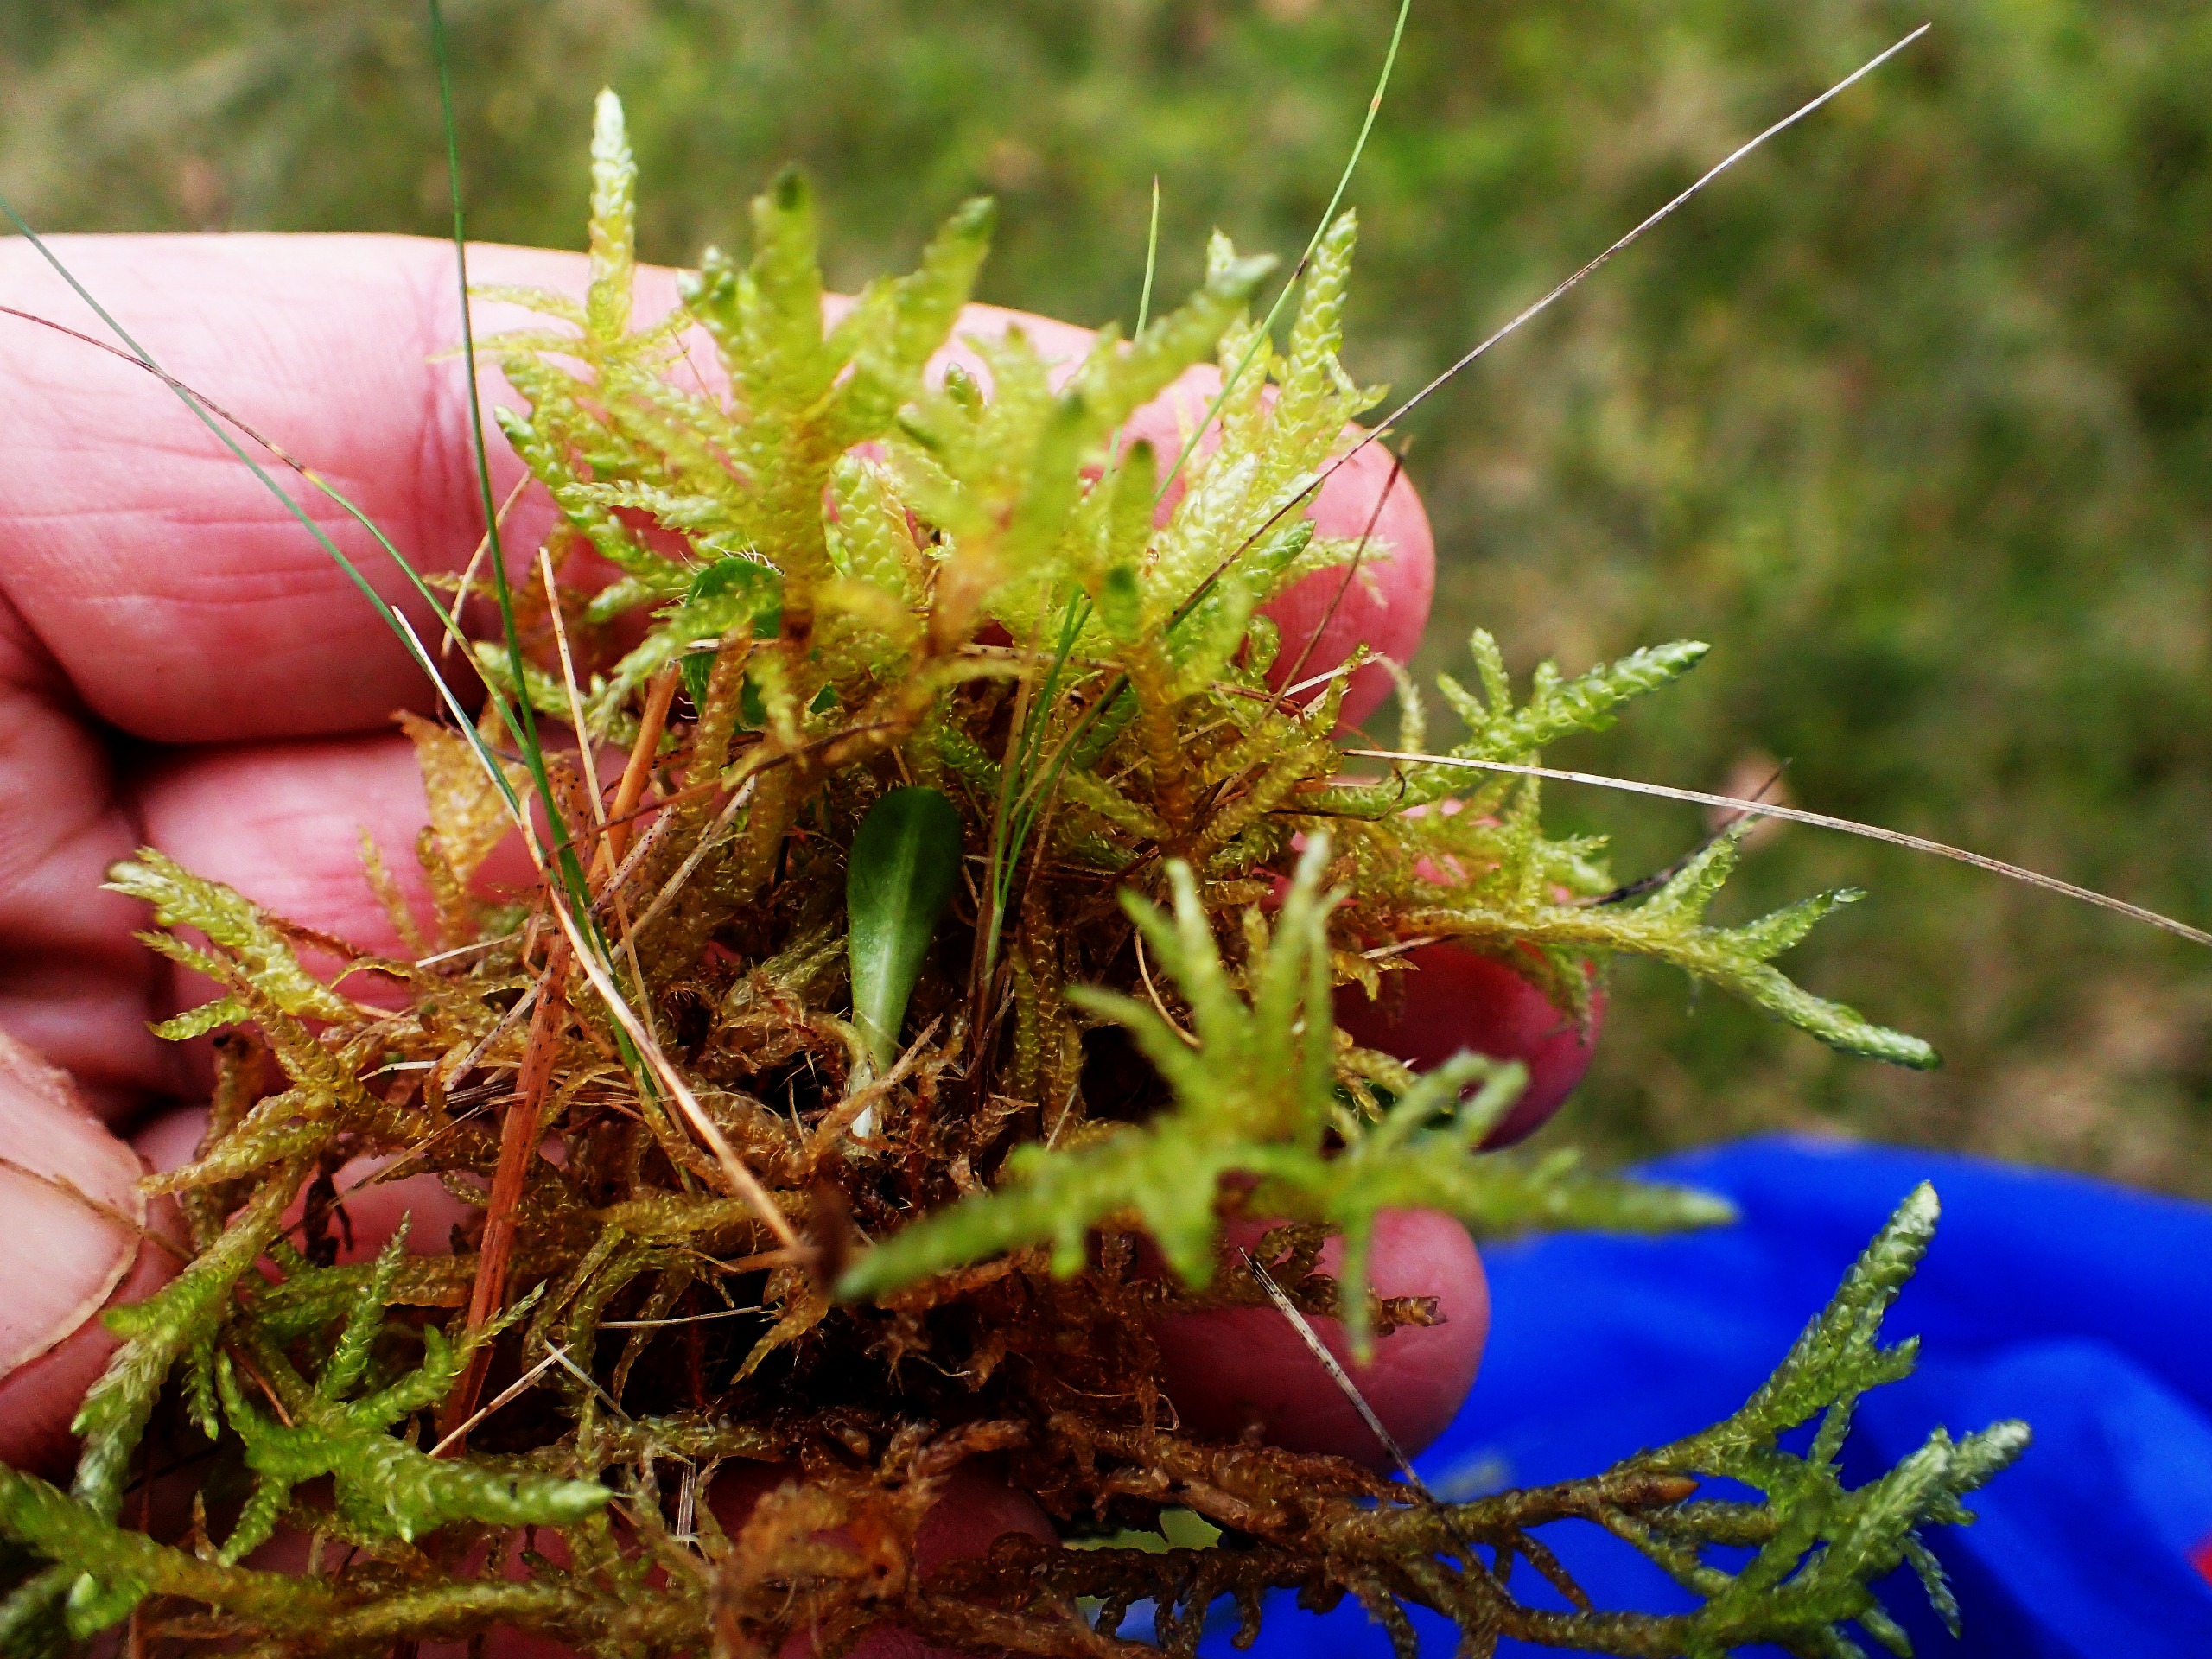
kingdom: Plantae
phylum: Bryophyta
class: Bryopsida
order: Hypnales
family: Brachytheciaceae
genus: Pseudoscleropodium
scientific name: Pseudoscleropodium purum
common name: Hulbladet fedtmos
